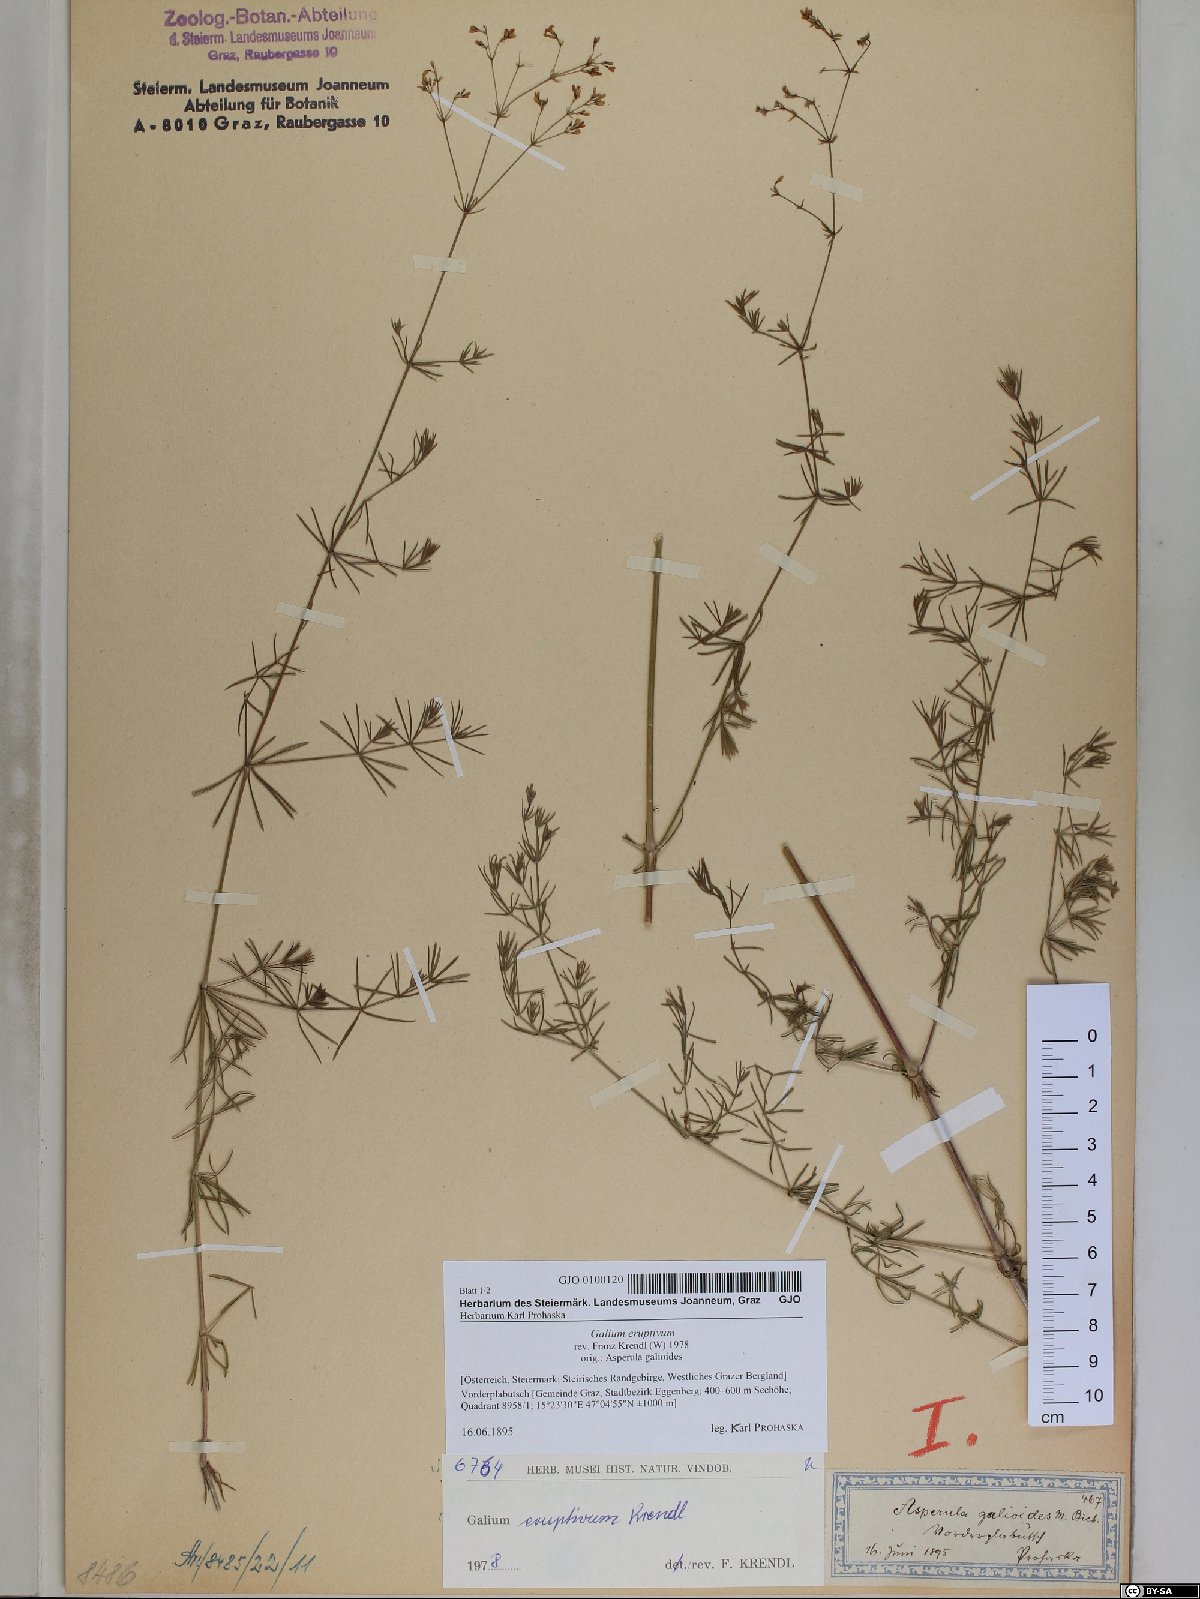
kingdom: Plantae
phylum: Tracheophyta
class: Magnoliopsida
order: Gentianales
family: Rubiaceae
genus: Galium
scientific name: Galium eruptivum
